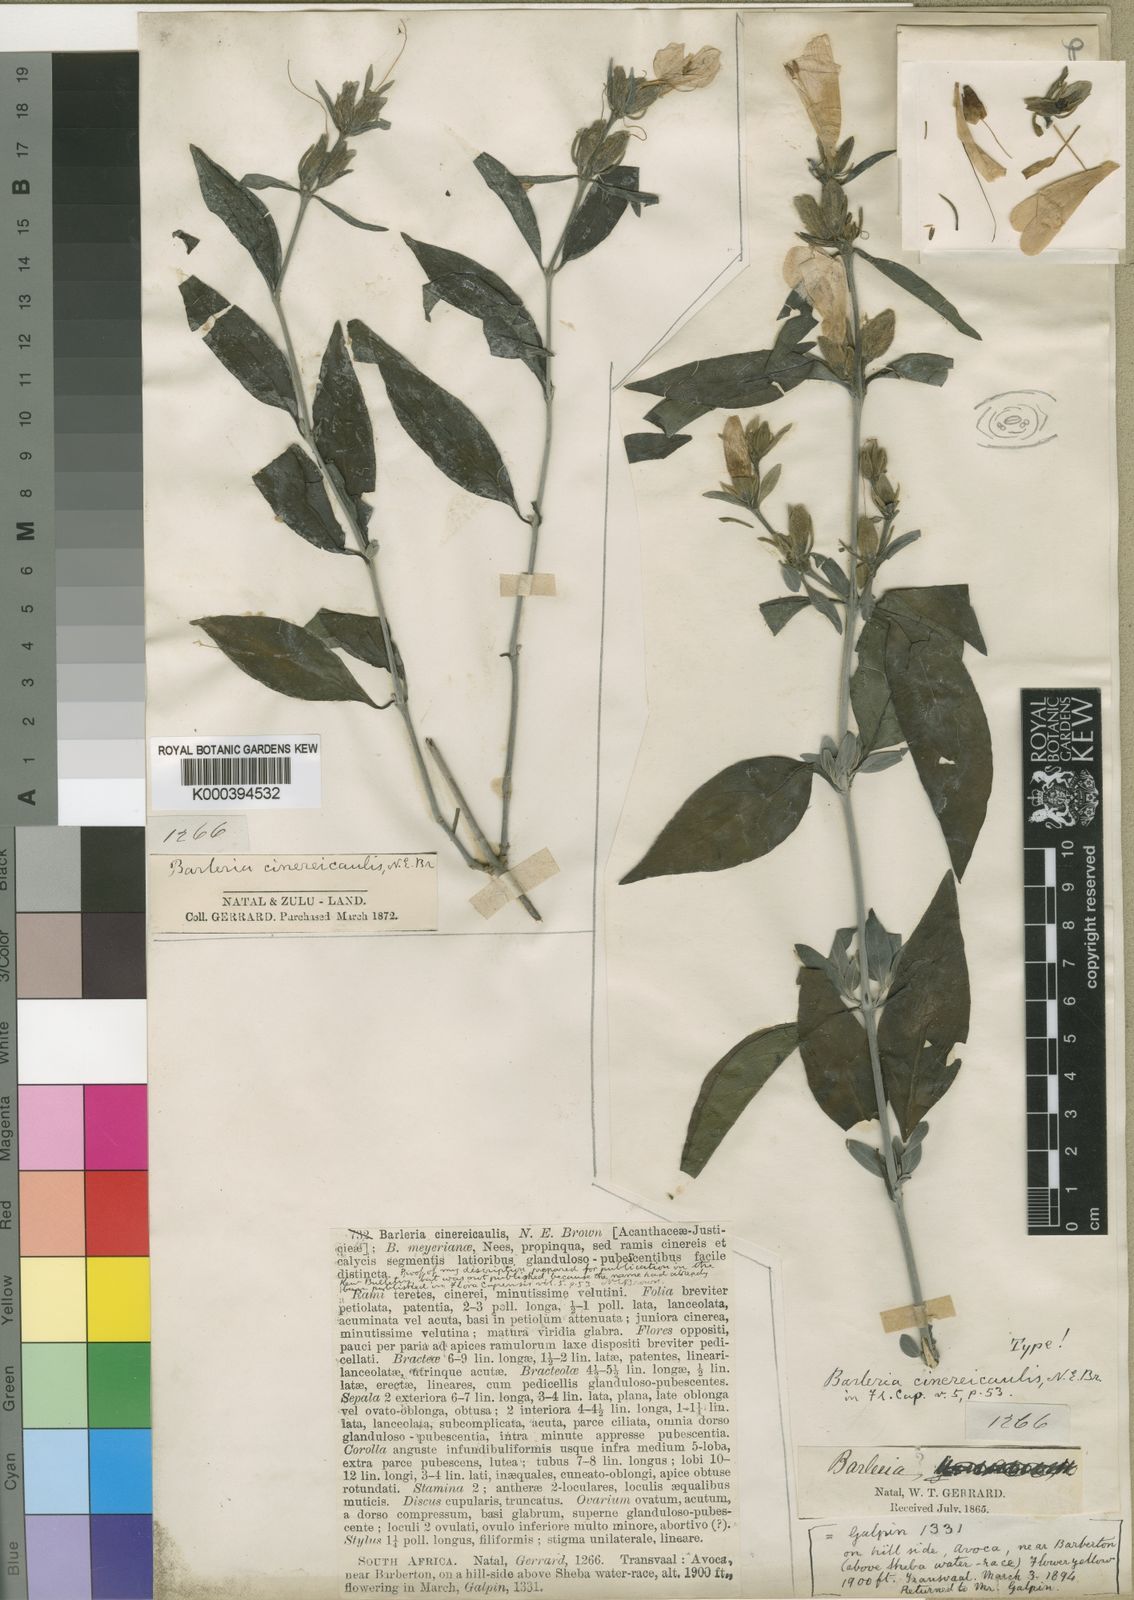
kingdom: Plantae
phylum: Tracheophyta
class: Magnoliopsida
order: Lamiales
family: Acanthaceae
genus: Barleria
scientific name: Barleria lancifolia
